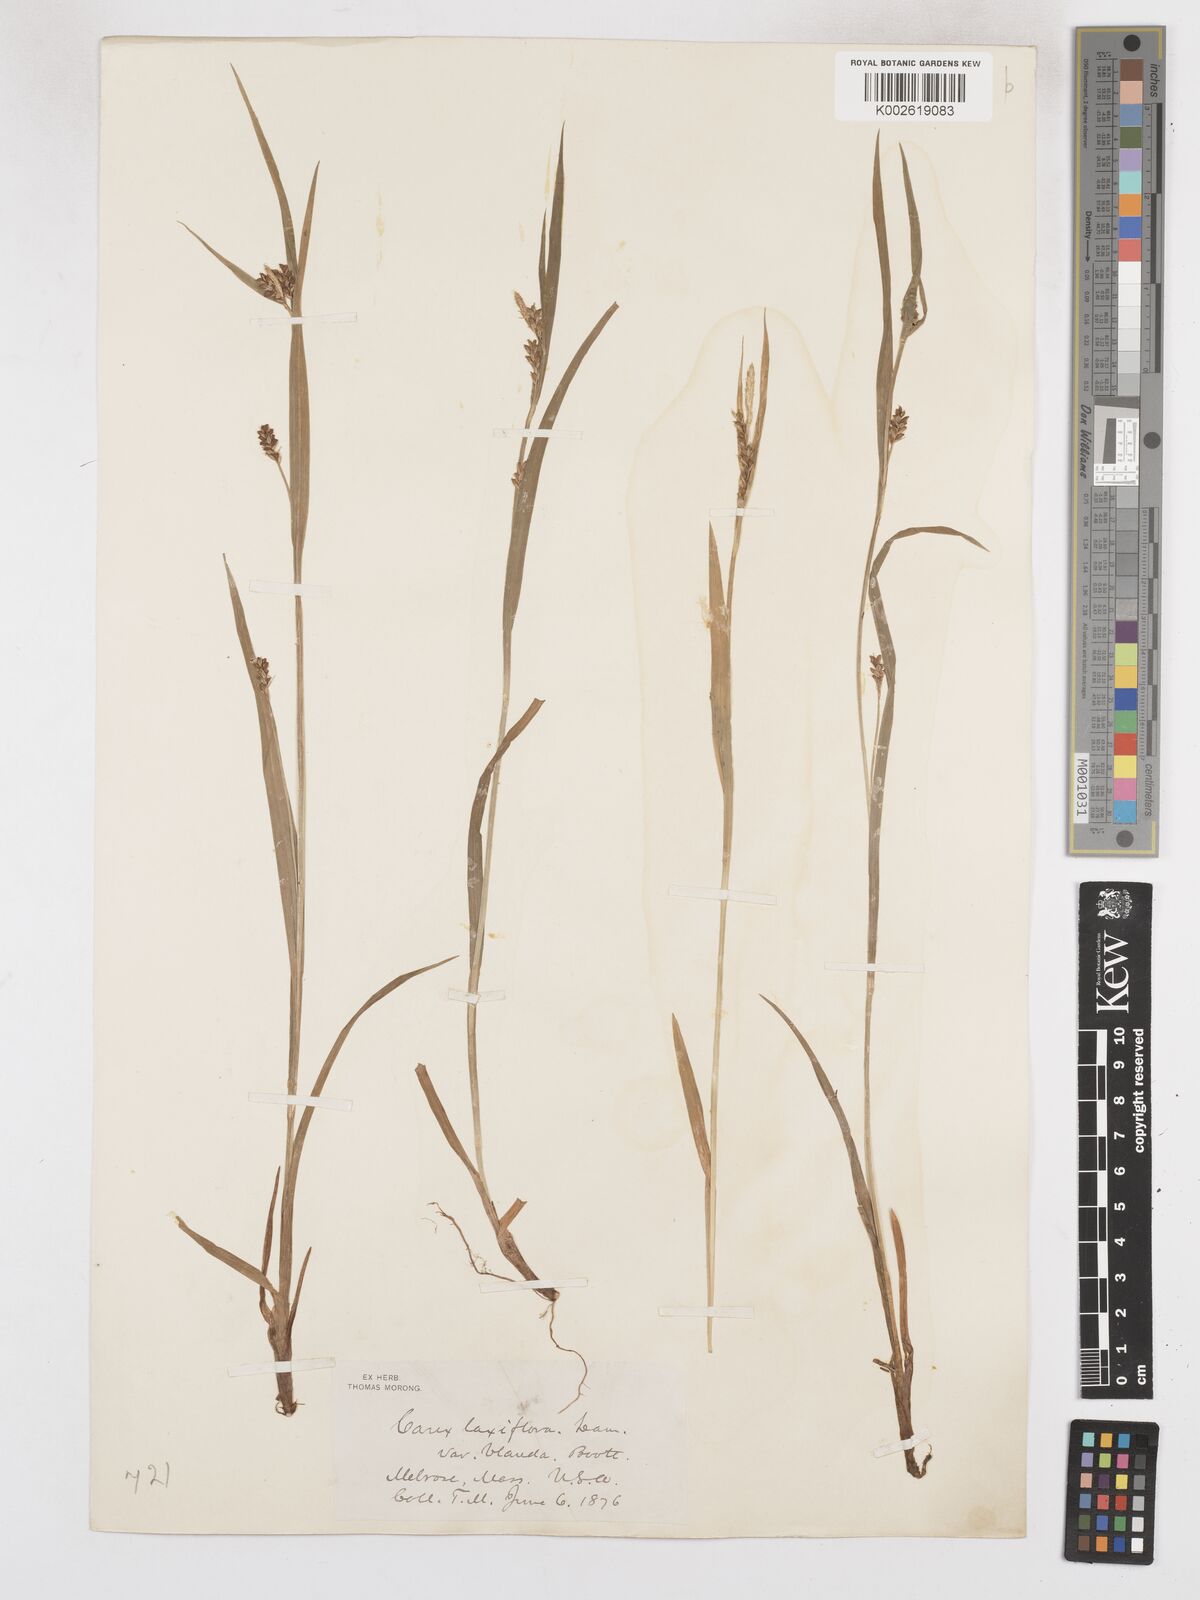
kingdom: Plantae
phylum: Tracheophyta
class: Liliopsida
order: Poales
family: Cyperaceae
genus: Carex
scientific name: Carex blanda
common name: Bland sedge
